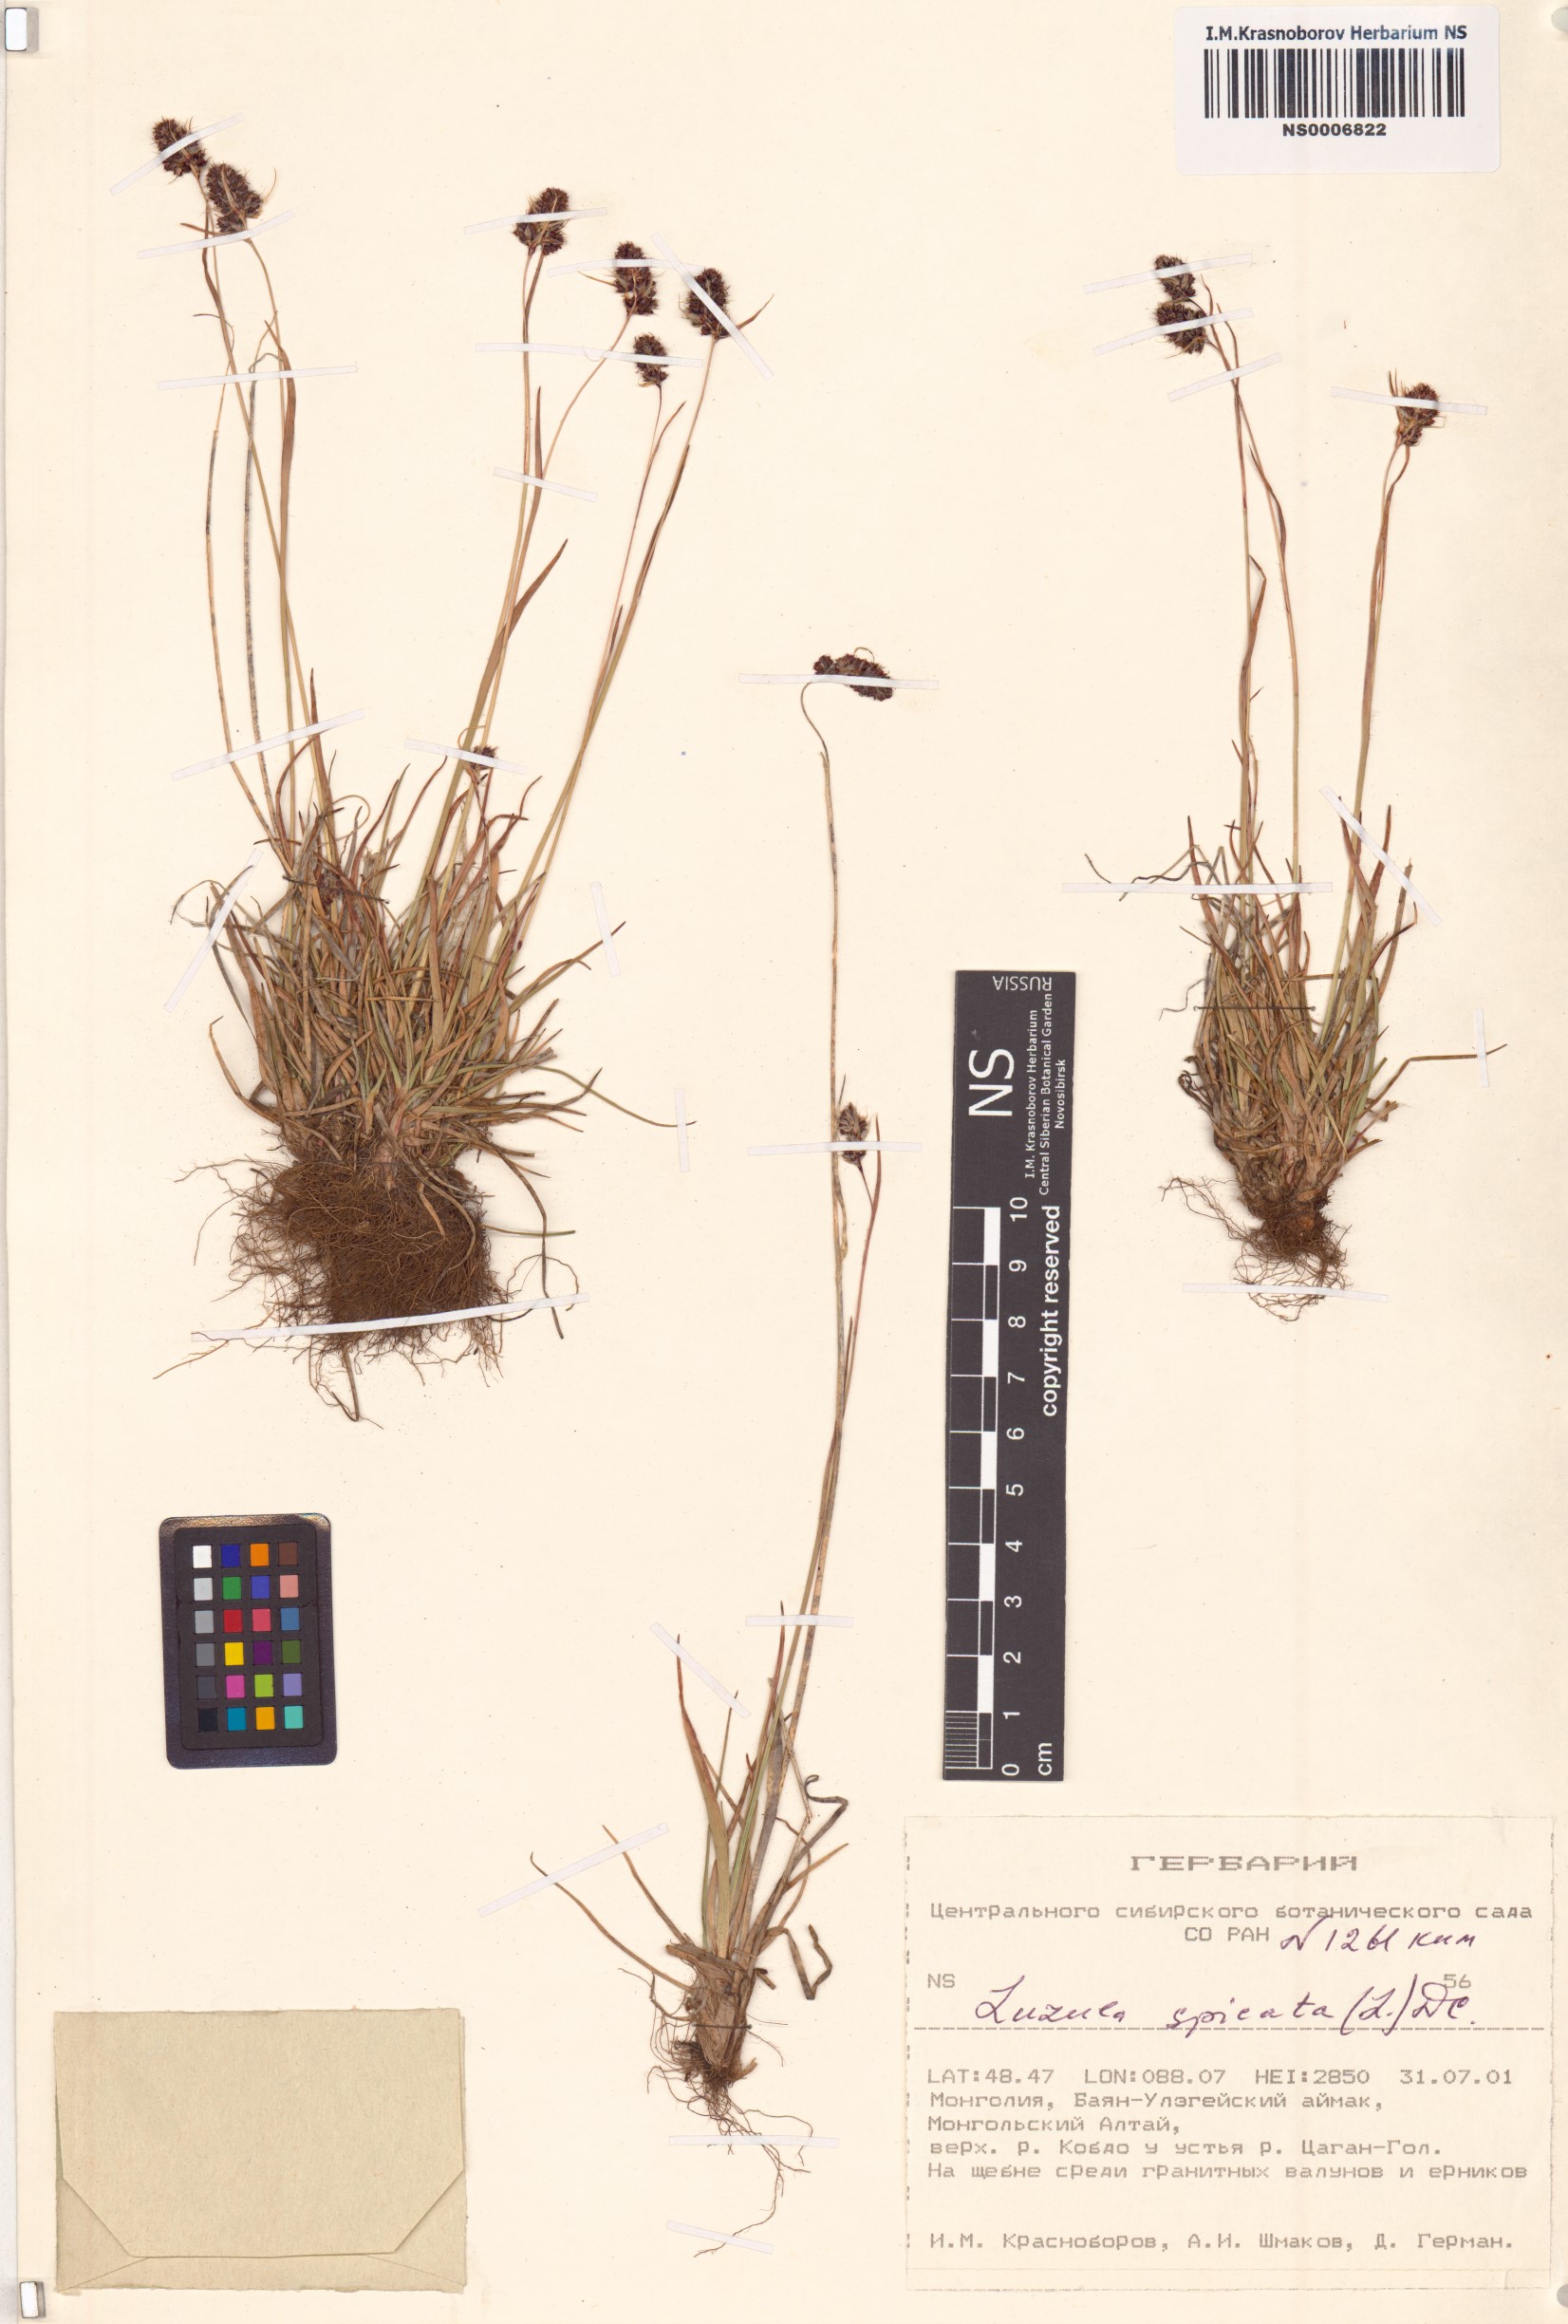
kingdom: Plantae
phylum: Tracheophyta
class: Liliopsida
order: Poales
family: Juncaceae
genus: Luzula
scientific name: Luzula spicata
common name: Spiked wood-rush
